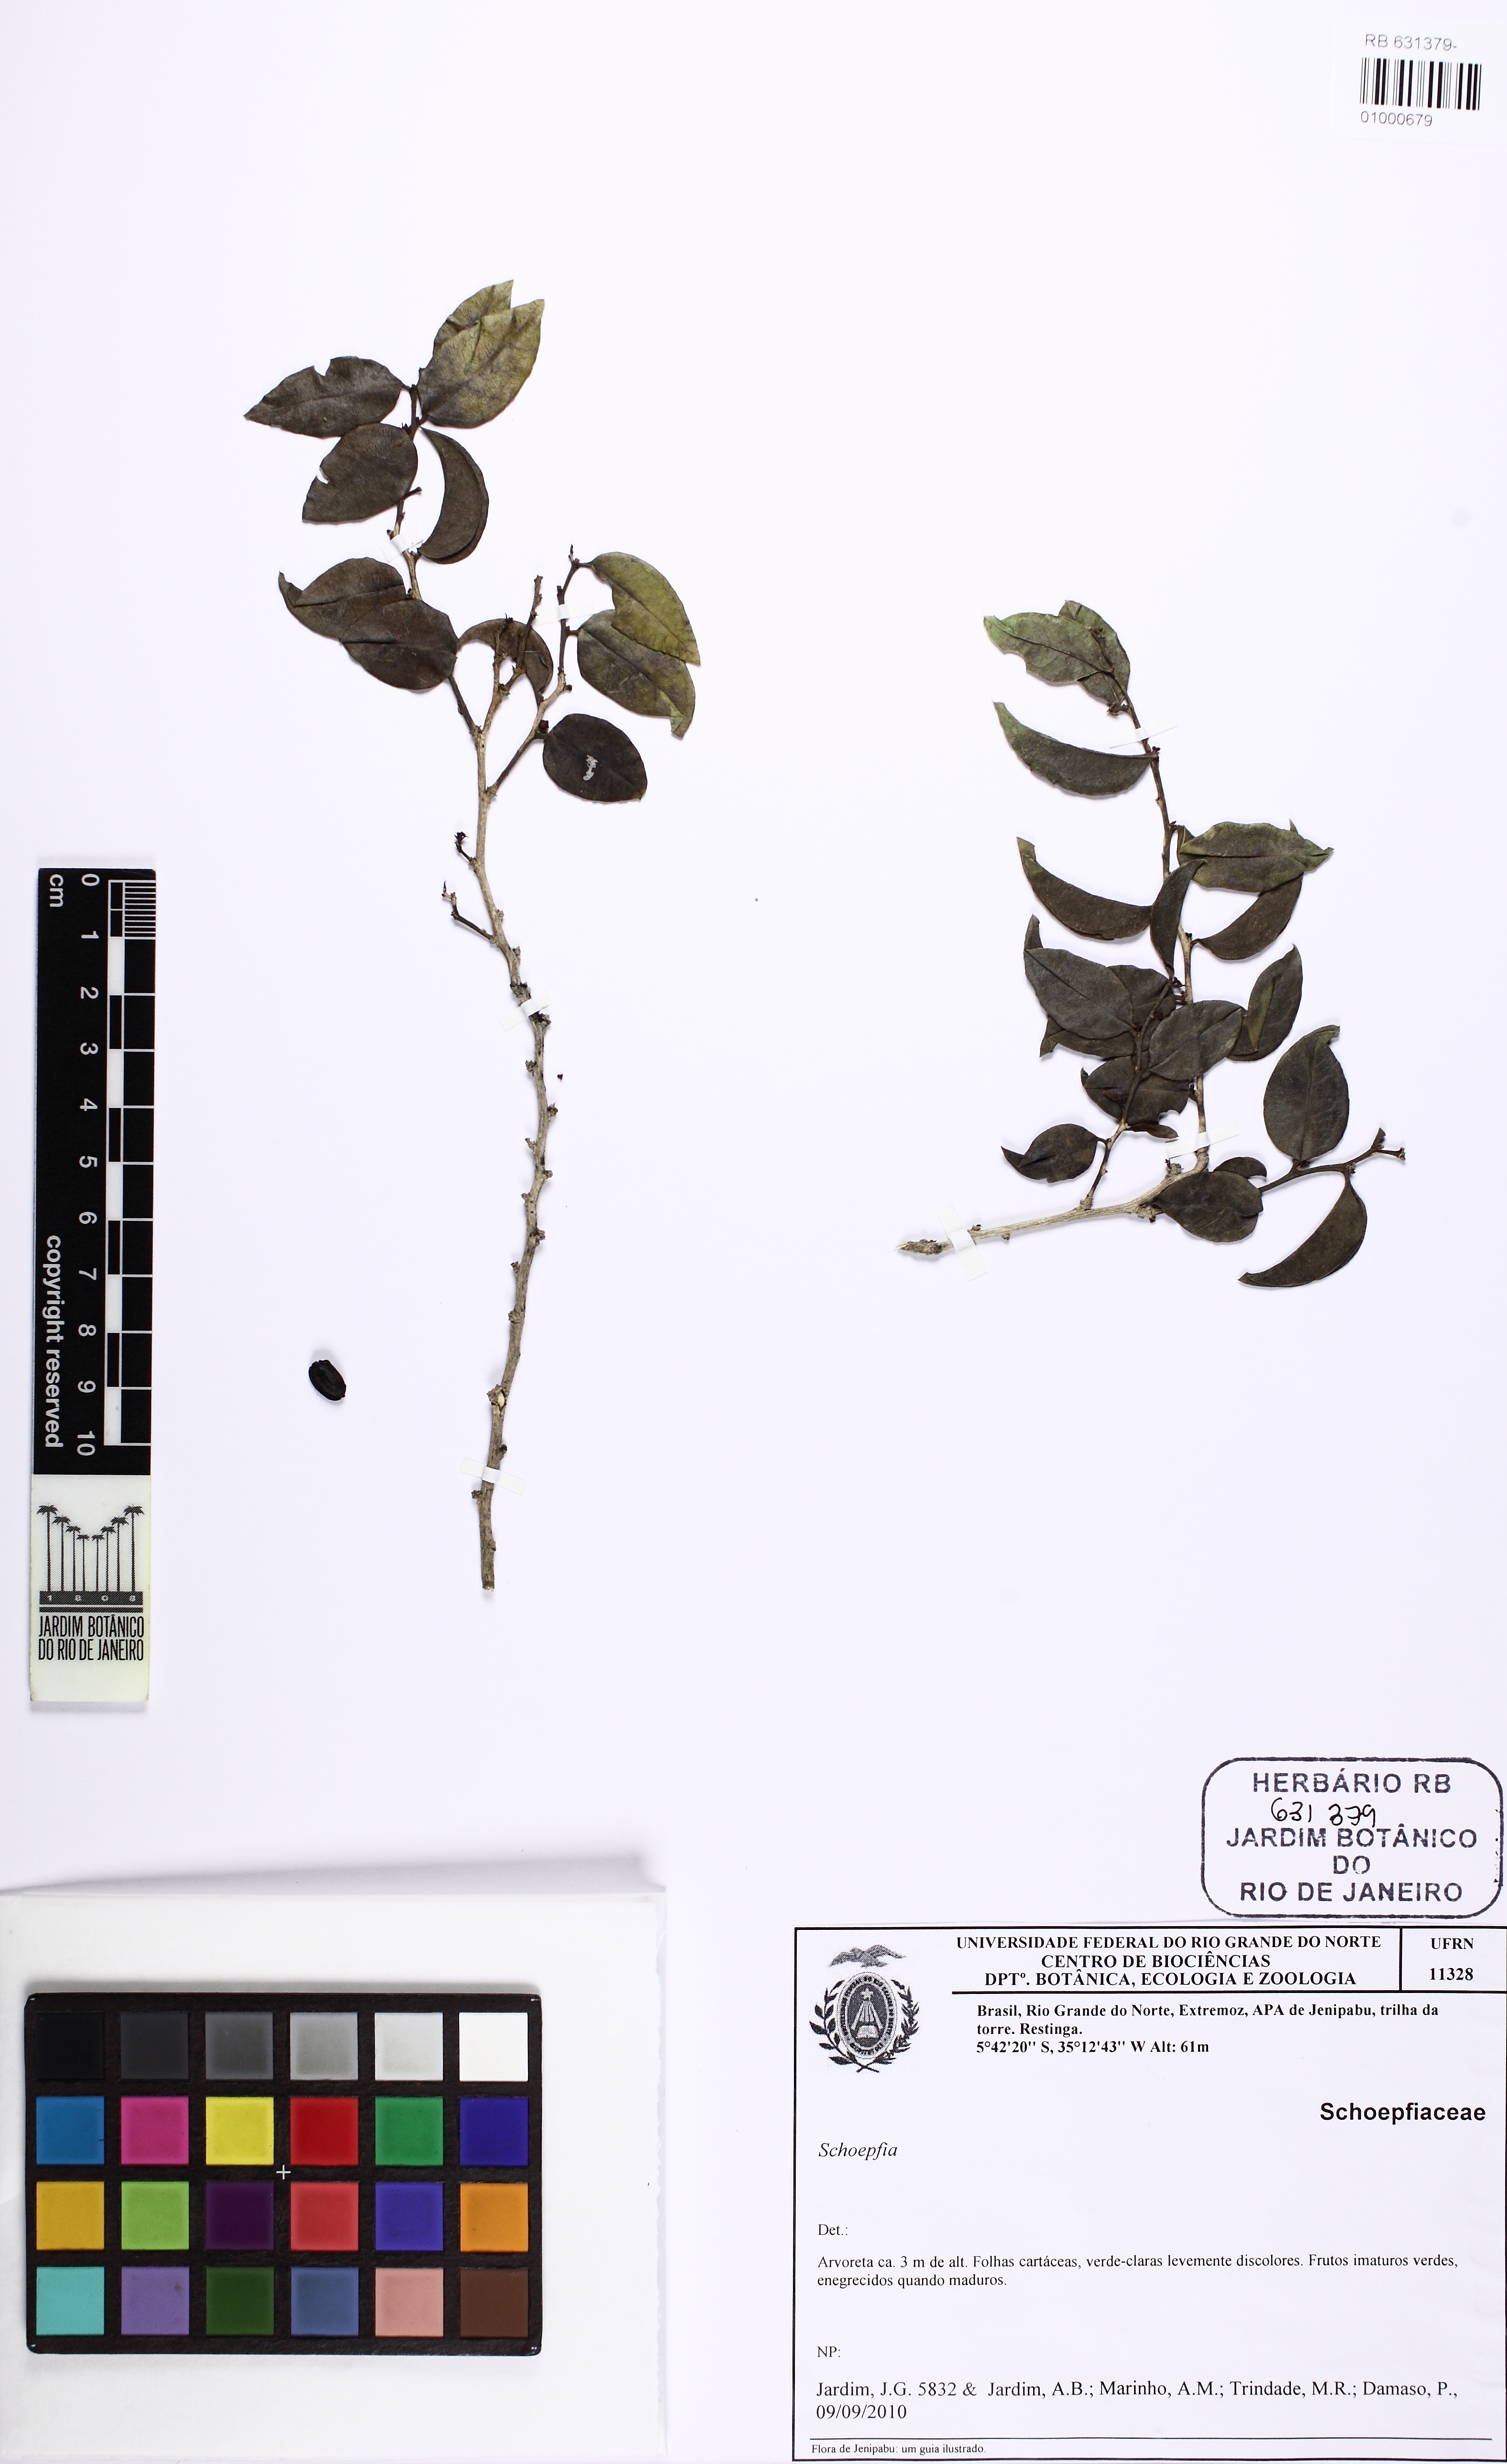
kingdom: Plantae
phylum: Tracheophyta
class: Magnoliopsida
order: Santalales
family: Schoepfiaceae
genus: Schoepfia
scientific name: Schoepfia
